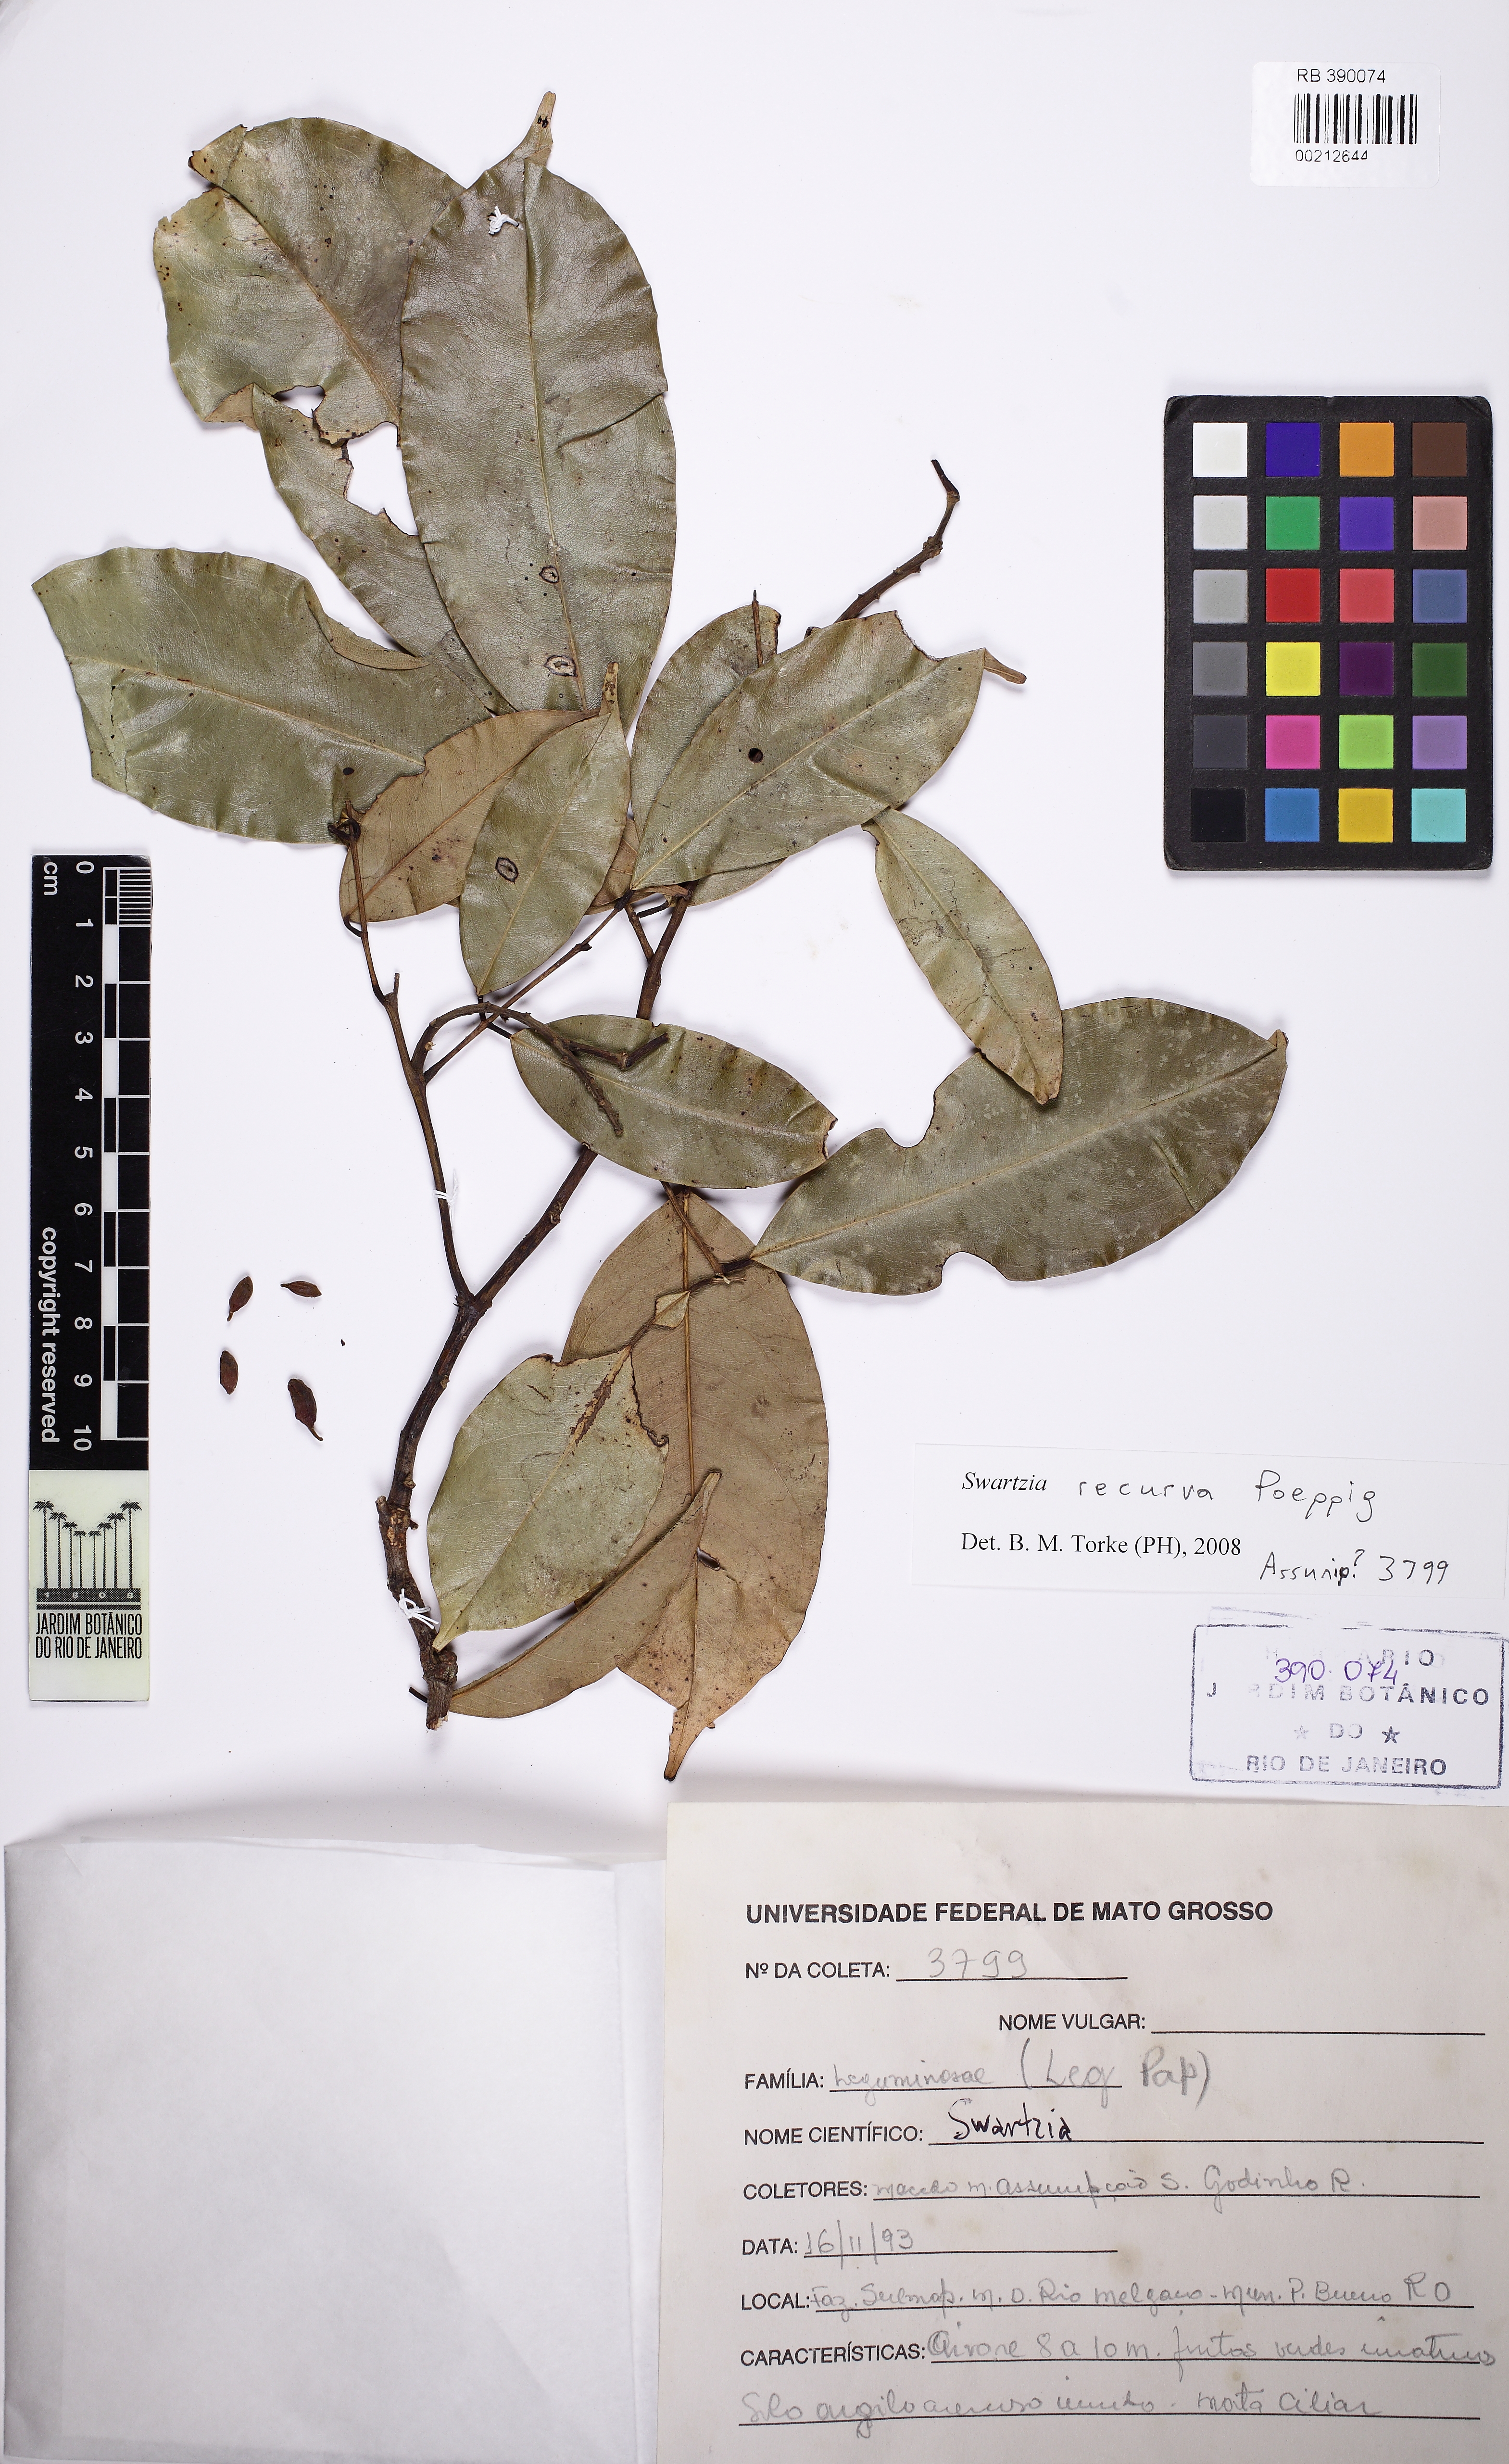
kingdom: Plantae
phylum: Tracheophyta
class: Magnoliopsida
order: Fabales
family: Fabaceae
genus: Swartzia
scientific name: Swartzia recurva
